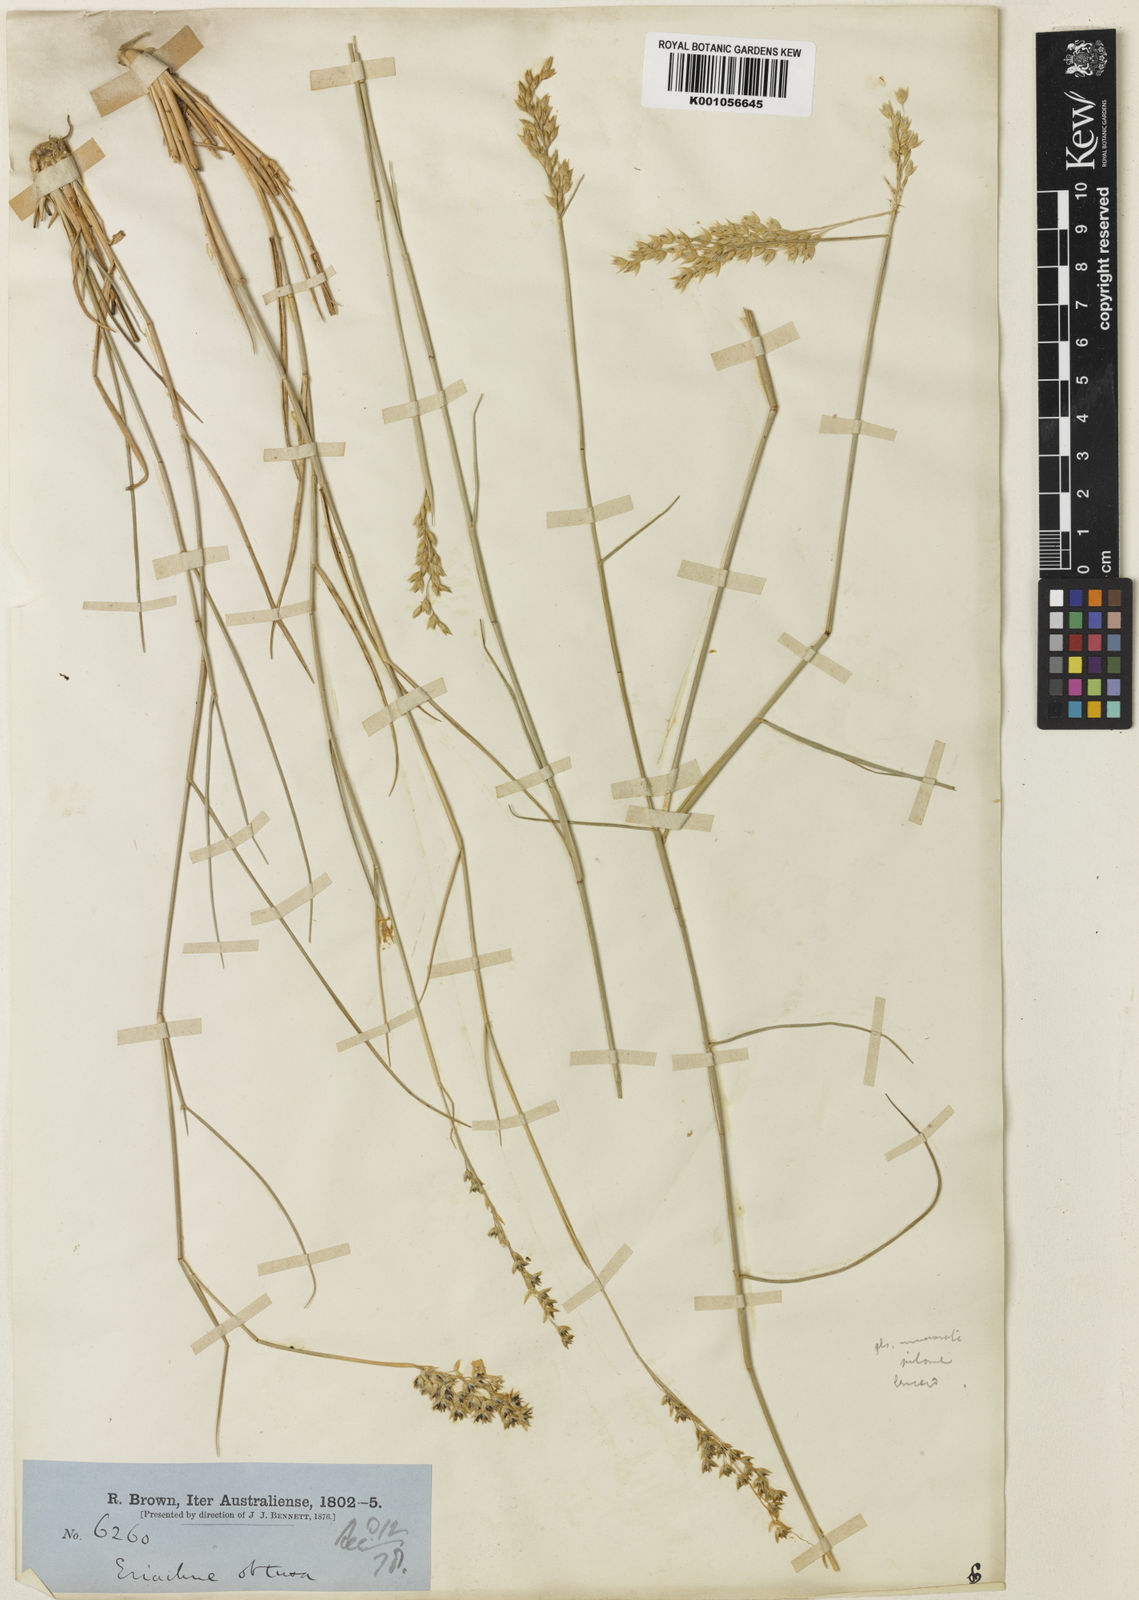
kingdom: Plantae
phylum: Tracheophyta
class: Liliopsida
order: Poales
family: Poaceae
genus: Eriachne
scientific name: Eriachne obtusa
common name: Northern wanderrie grass
